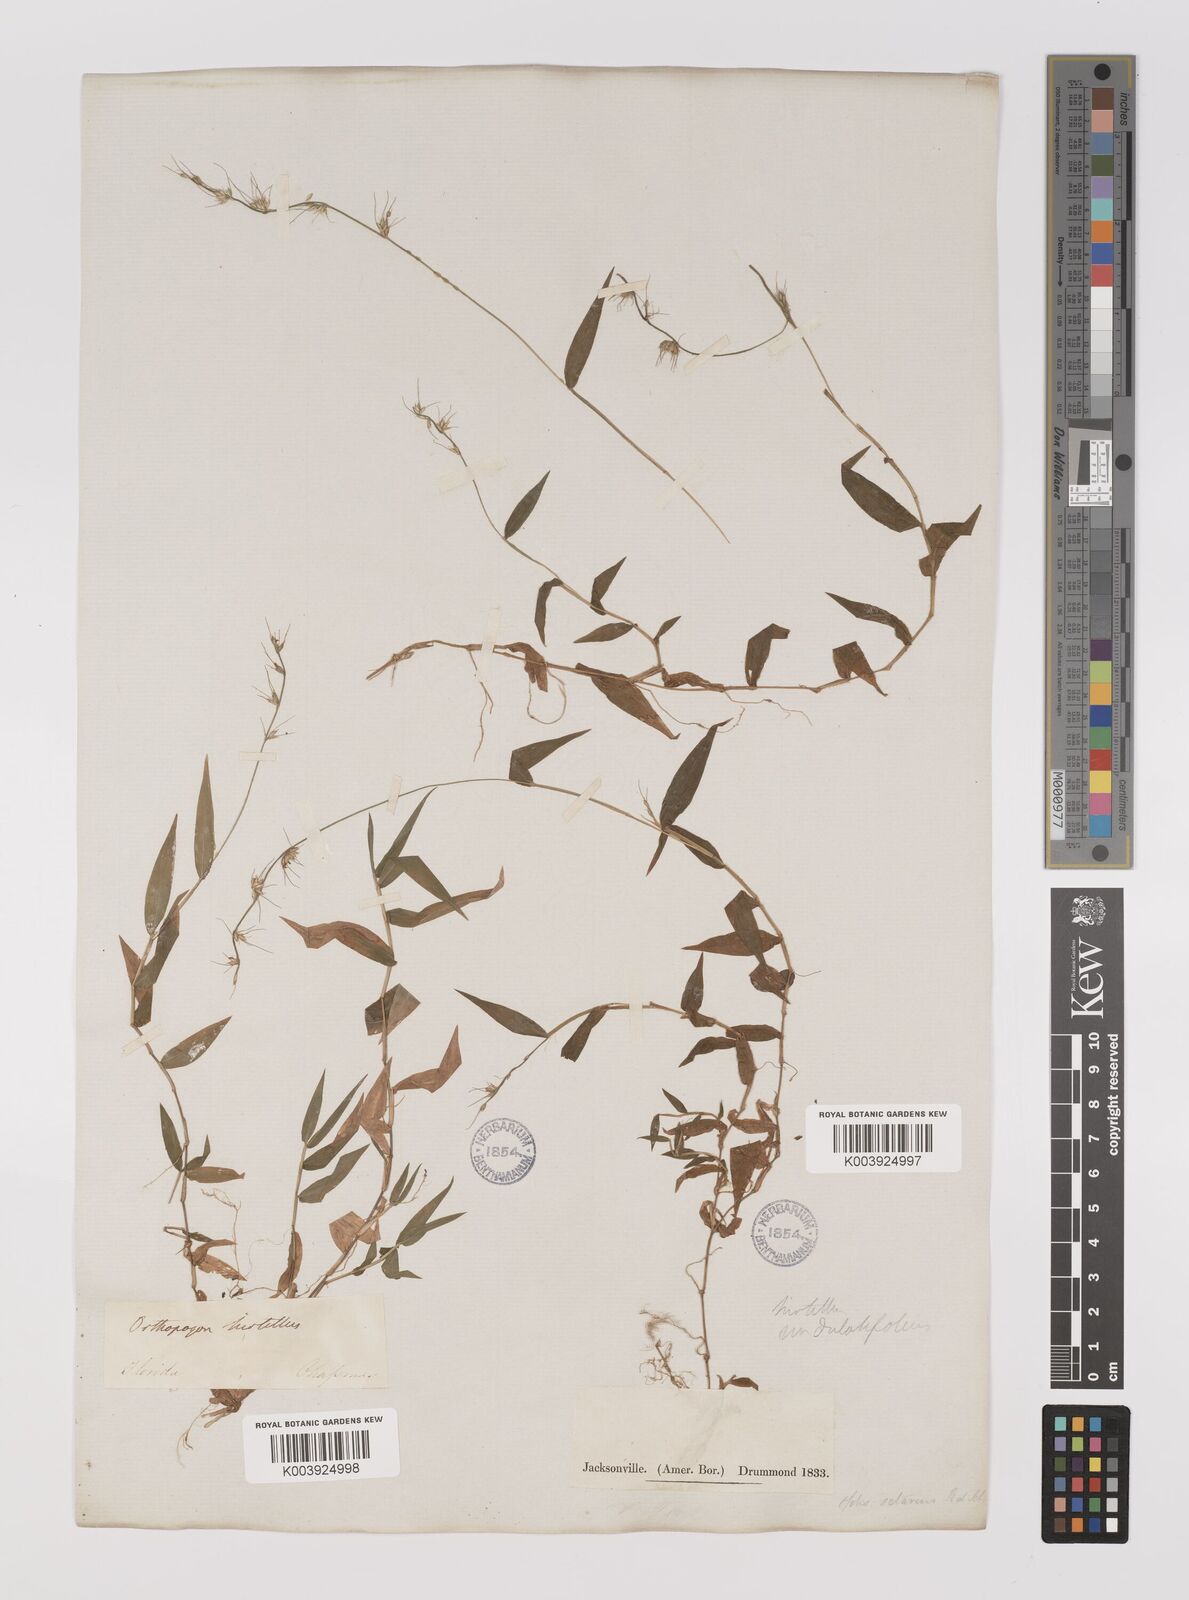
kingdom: Plantae
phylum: Tracheophyta
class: Liliopsida
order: Poales
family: Poaceae
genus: Oplismenus
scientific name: Oplismenus undulatifolius
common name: Wavyleaf basketgrass
